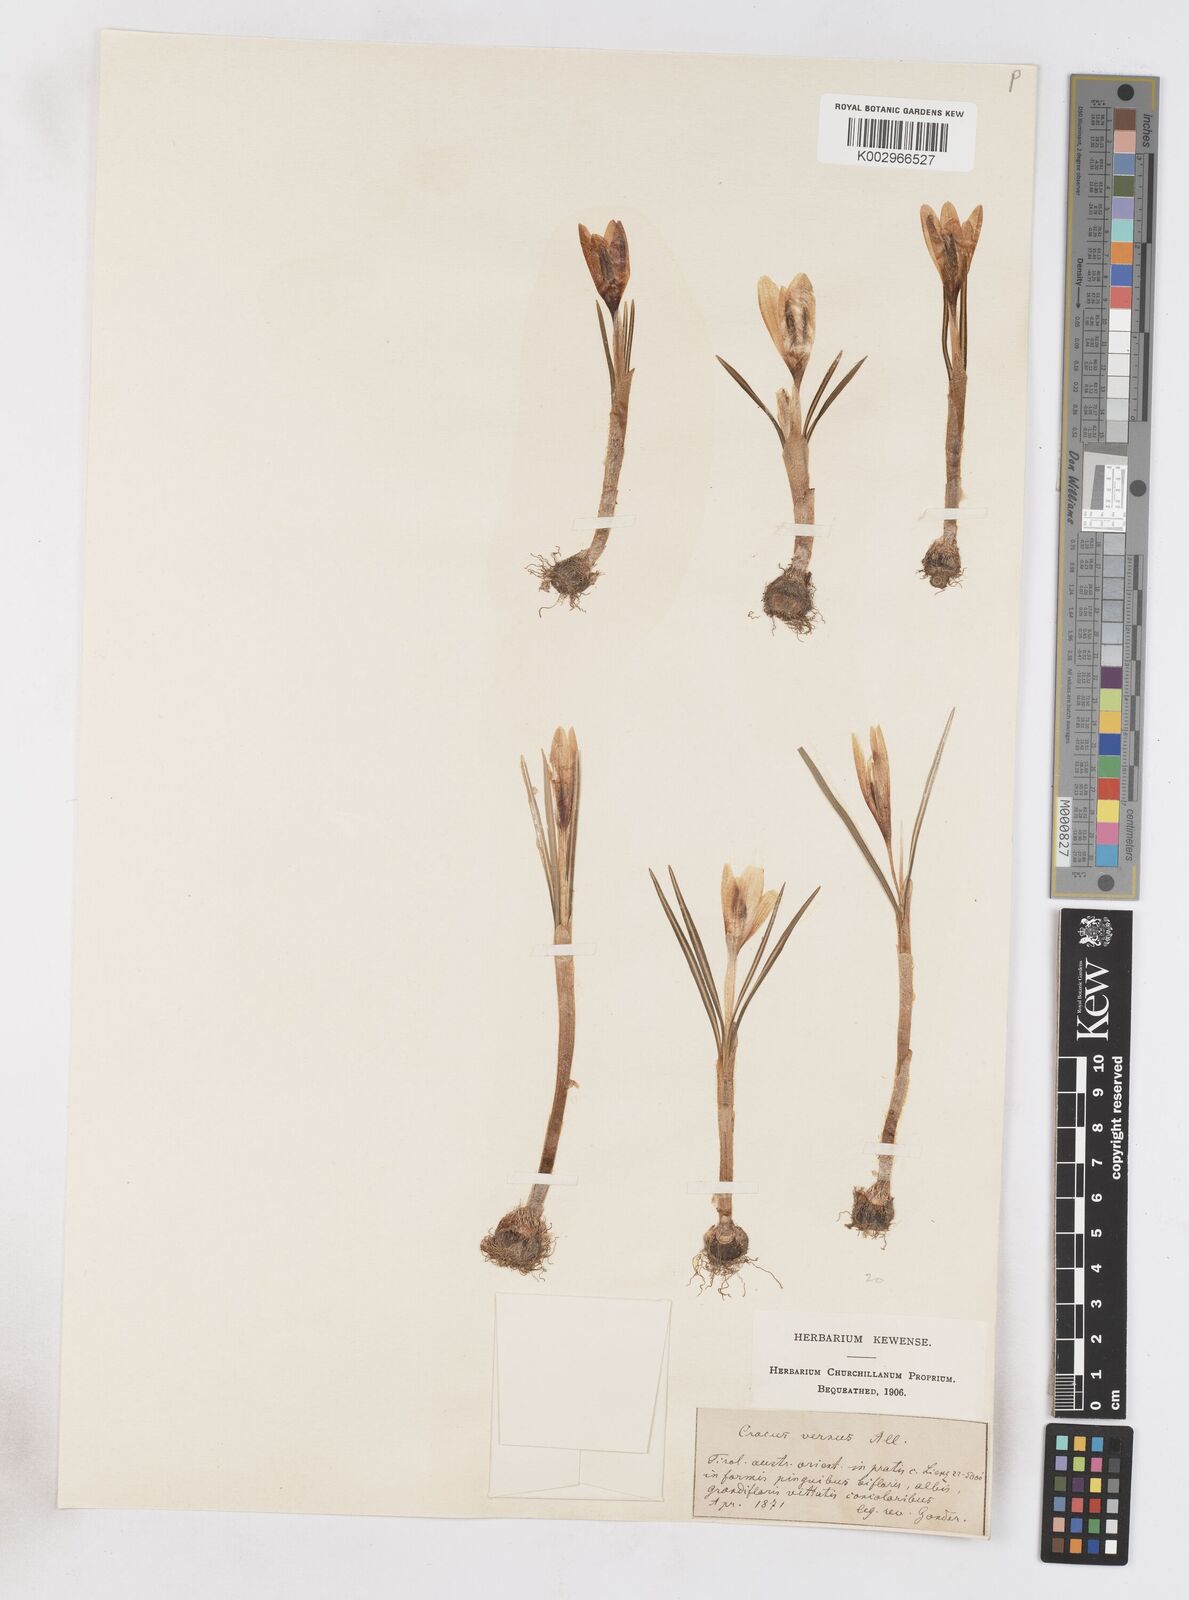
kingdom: Plantae
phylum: Tracheophyta
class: Liliopsida
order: Asparagales
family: Iridaceae
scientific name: Iridaceae
